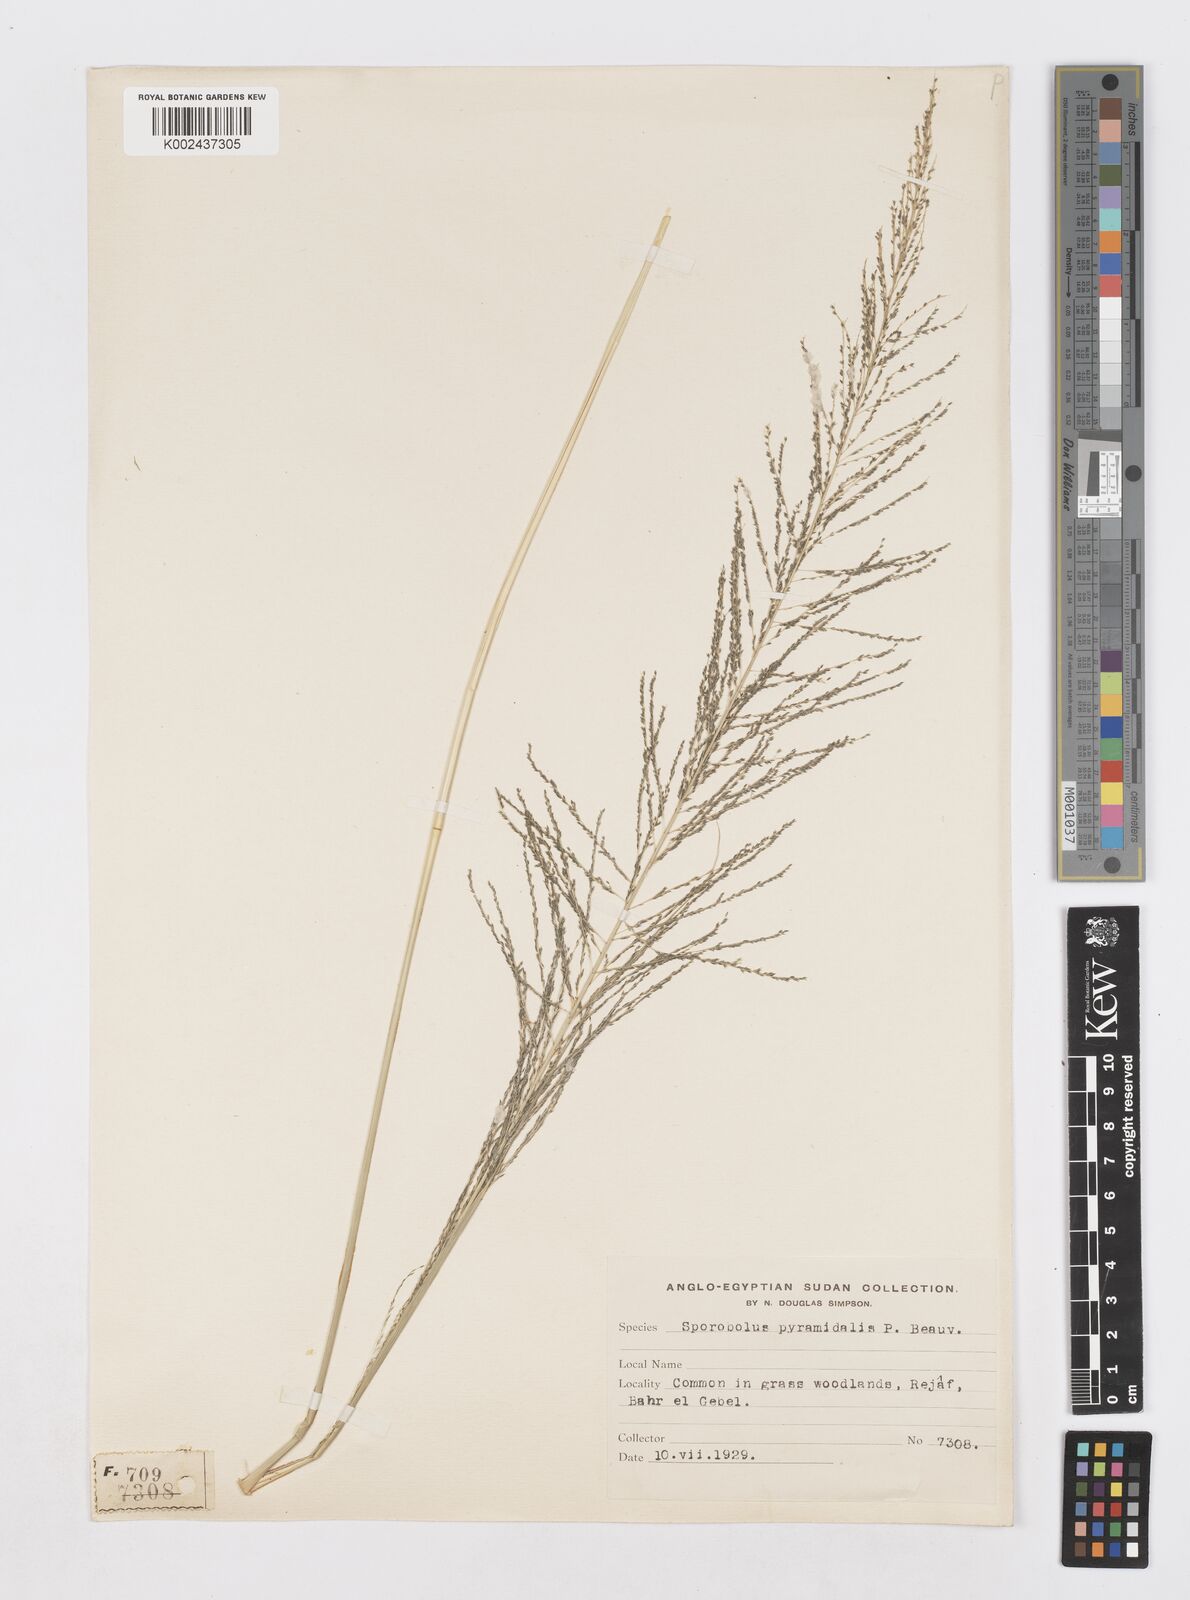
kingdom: Plantae
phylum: Tracheophyta
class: Liliopsida
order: Poales
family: Poaceae
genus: Sporobolus
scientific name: Sporobolus pyramidalis
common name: West indian dropseed
